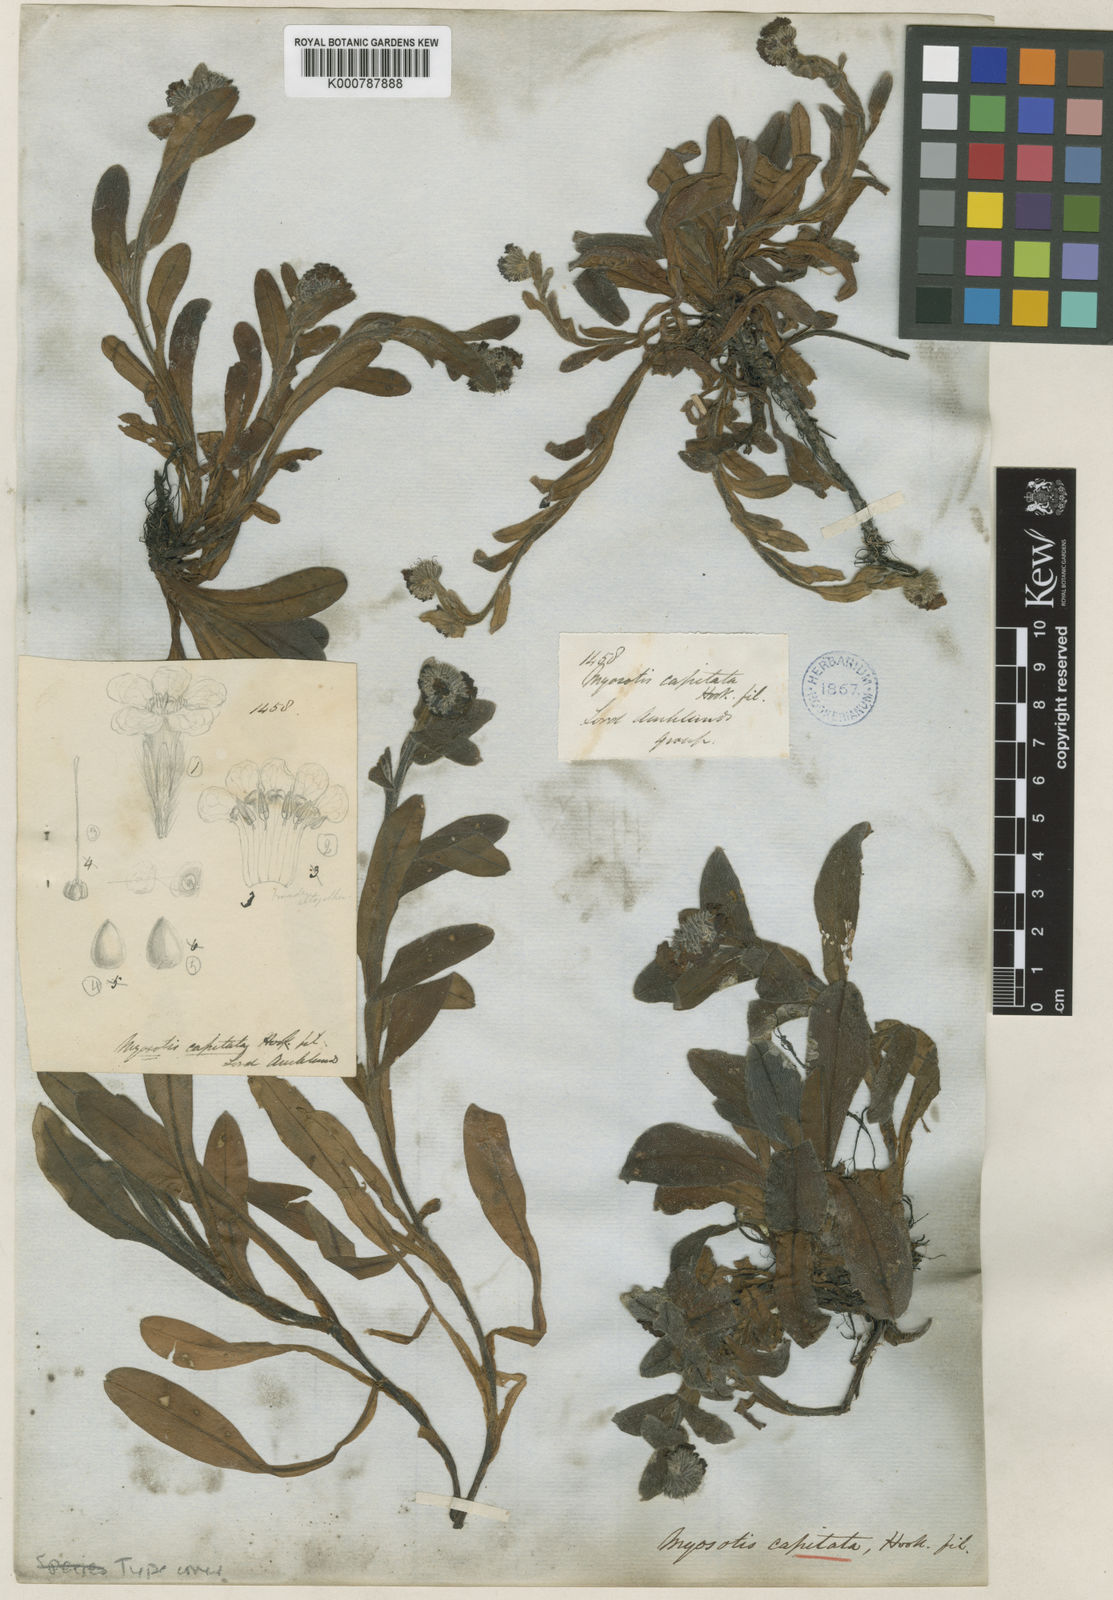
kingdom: Plantae
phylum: Tracheophyta
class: Magnoliopsida
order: Boraginales
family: Boraginaceae
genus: Myosotis
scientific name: Myosotis capitata
